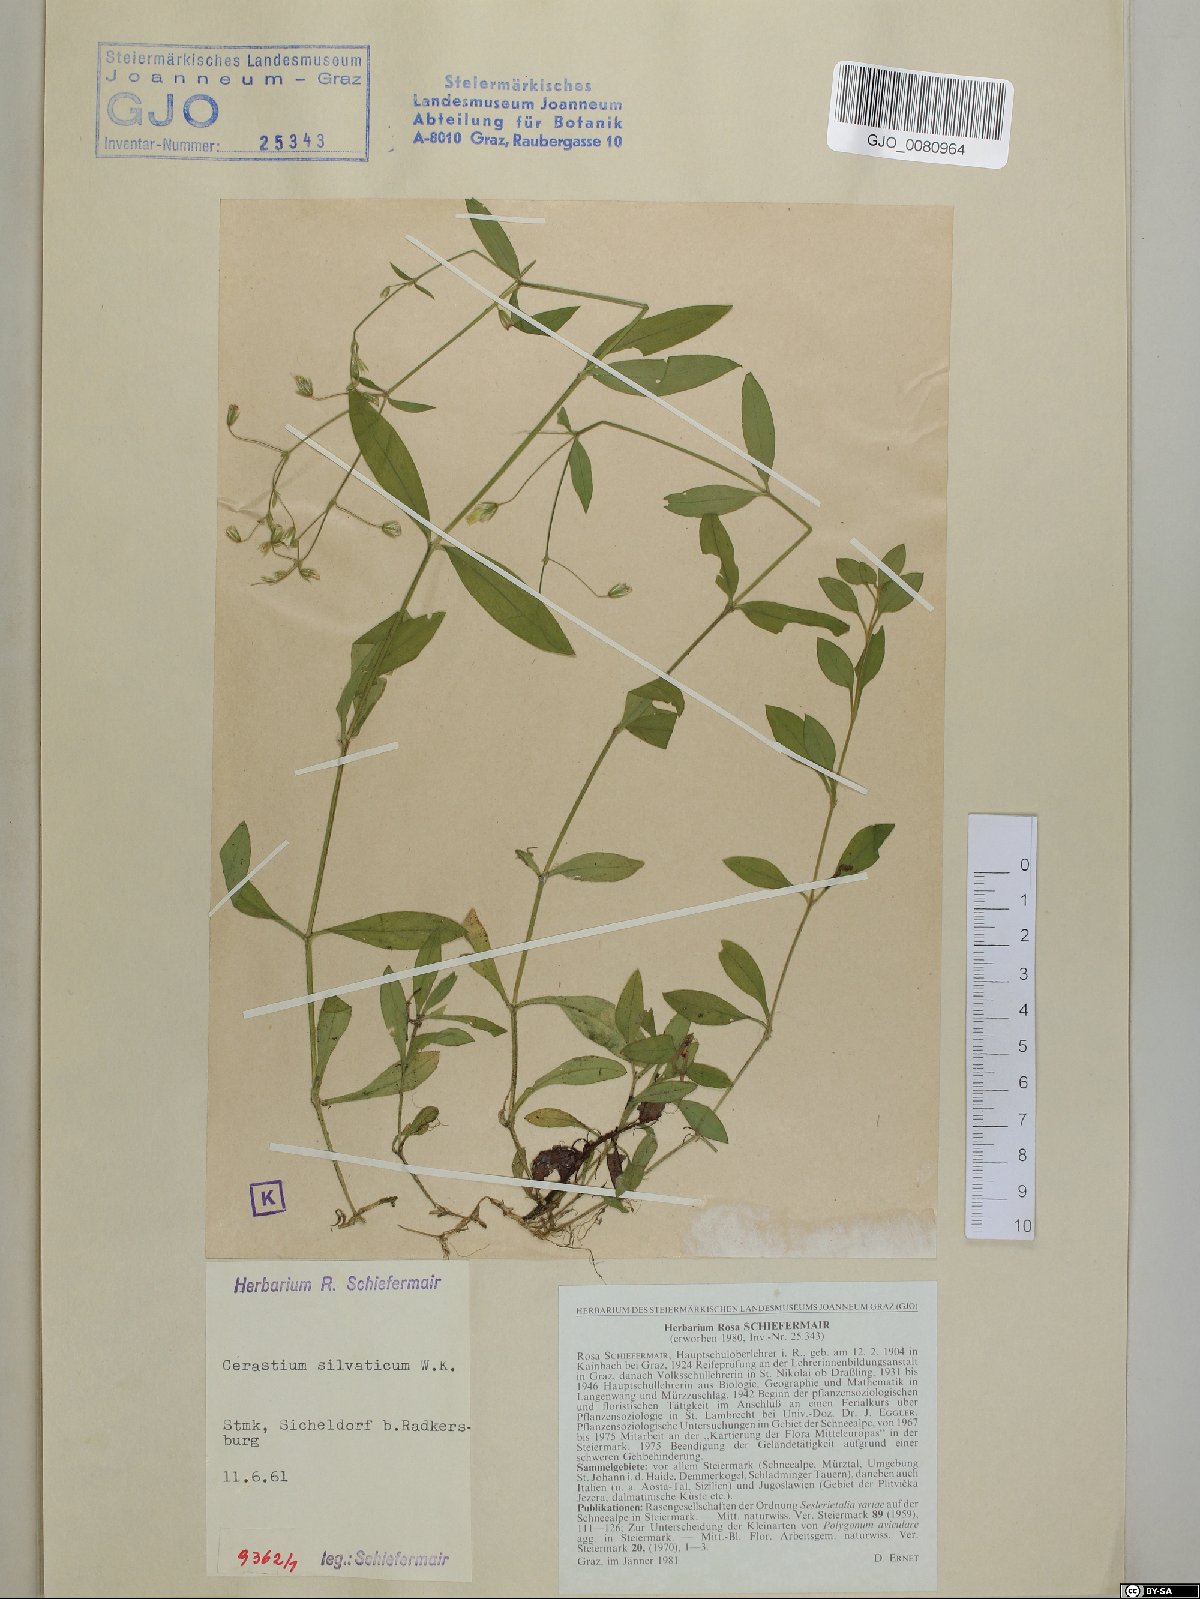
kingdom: Plantae
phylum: Tracheophyta
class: Magnoliopsida
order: Caryophyllales
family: Caryophyllaceae
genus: Cerastium
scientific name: Cerastium sylvaticum
